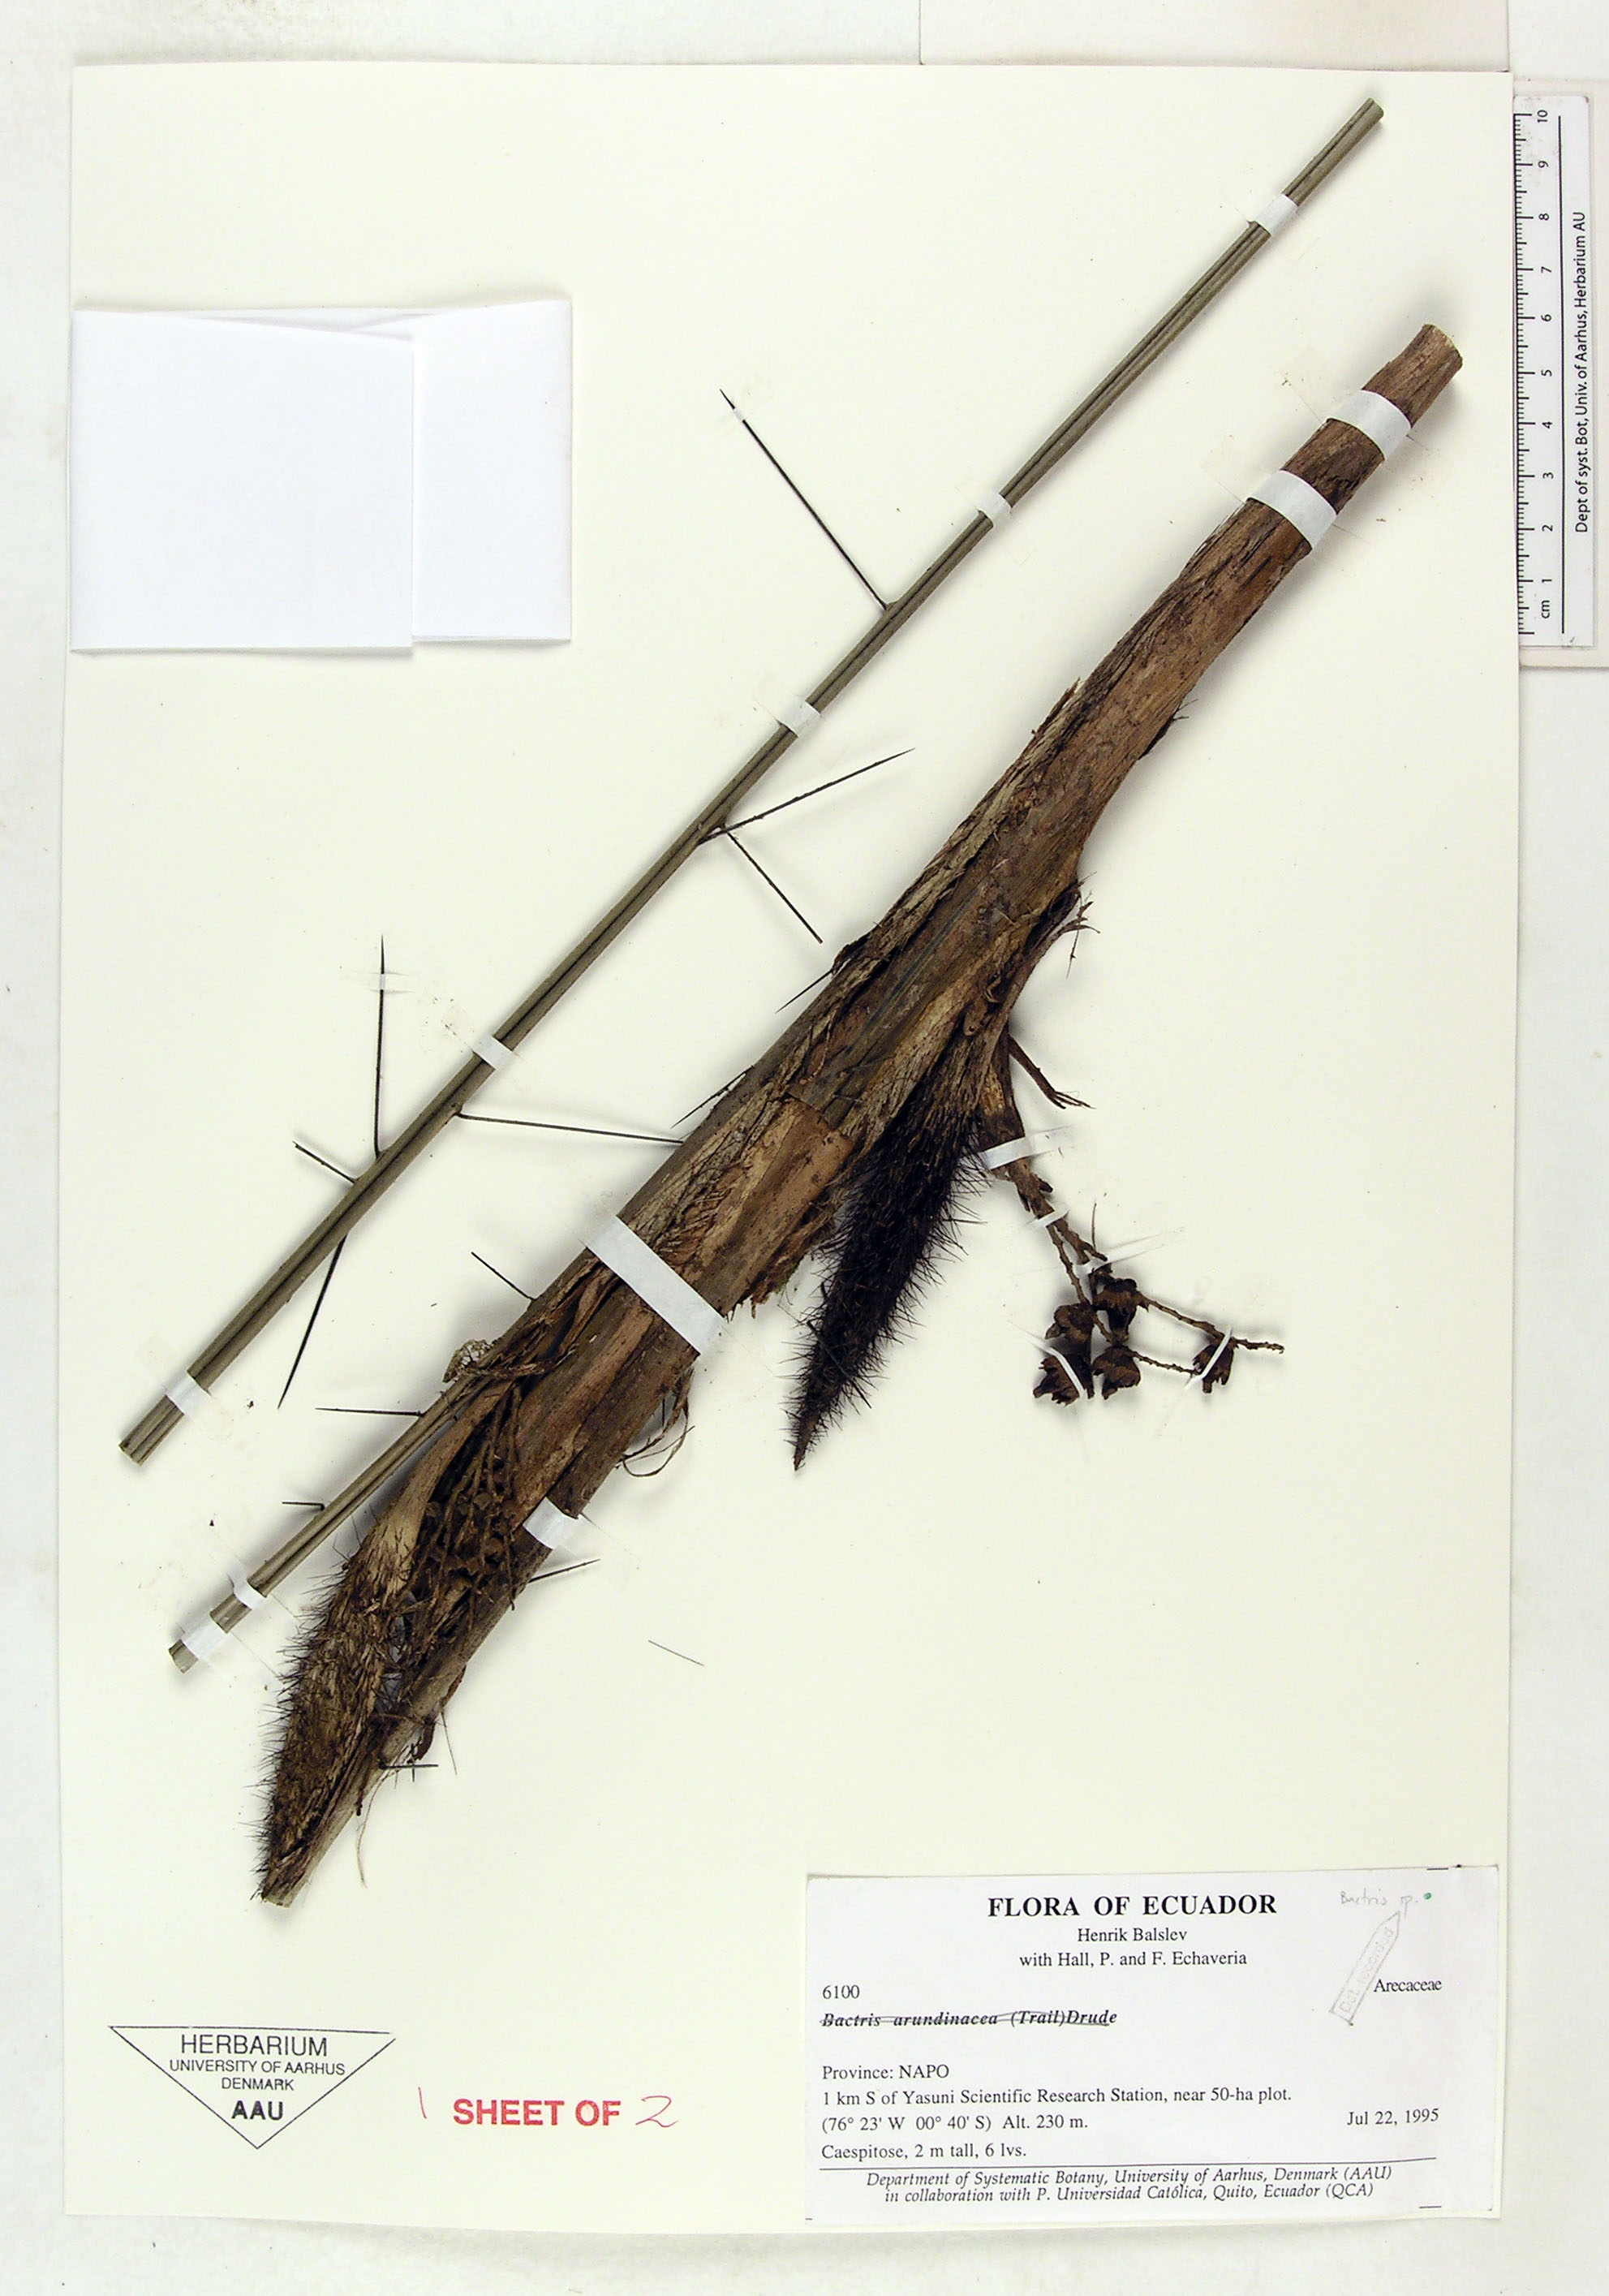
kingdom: Plantae
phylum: Tracheophyta
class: Liliopsida
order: Arecales
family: Arecaceae
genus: Bactris
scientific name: Bactris
